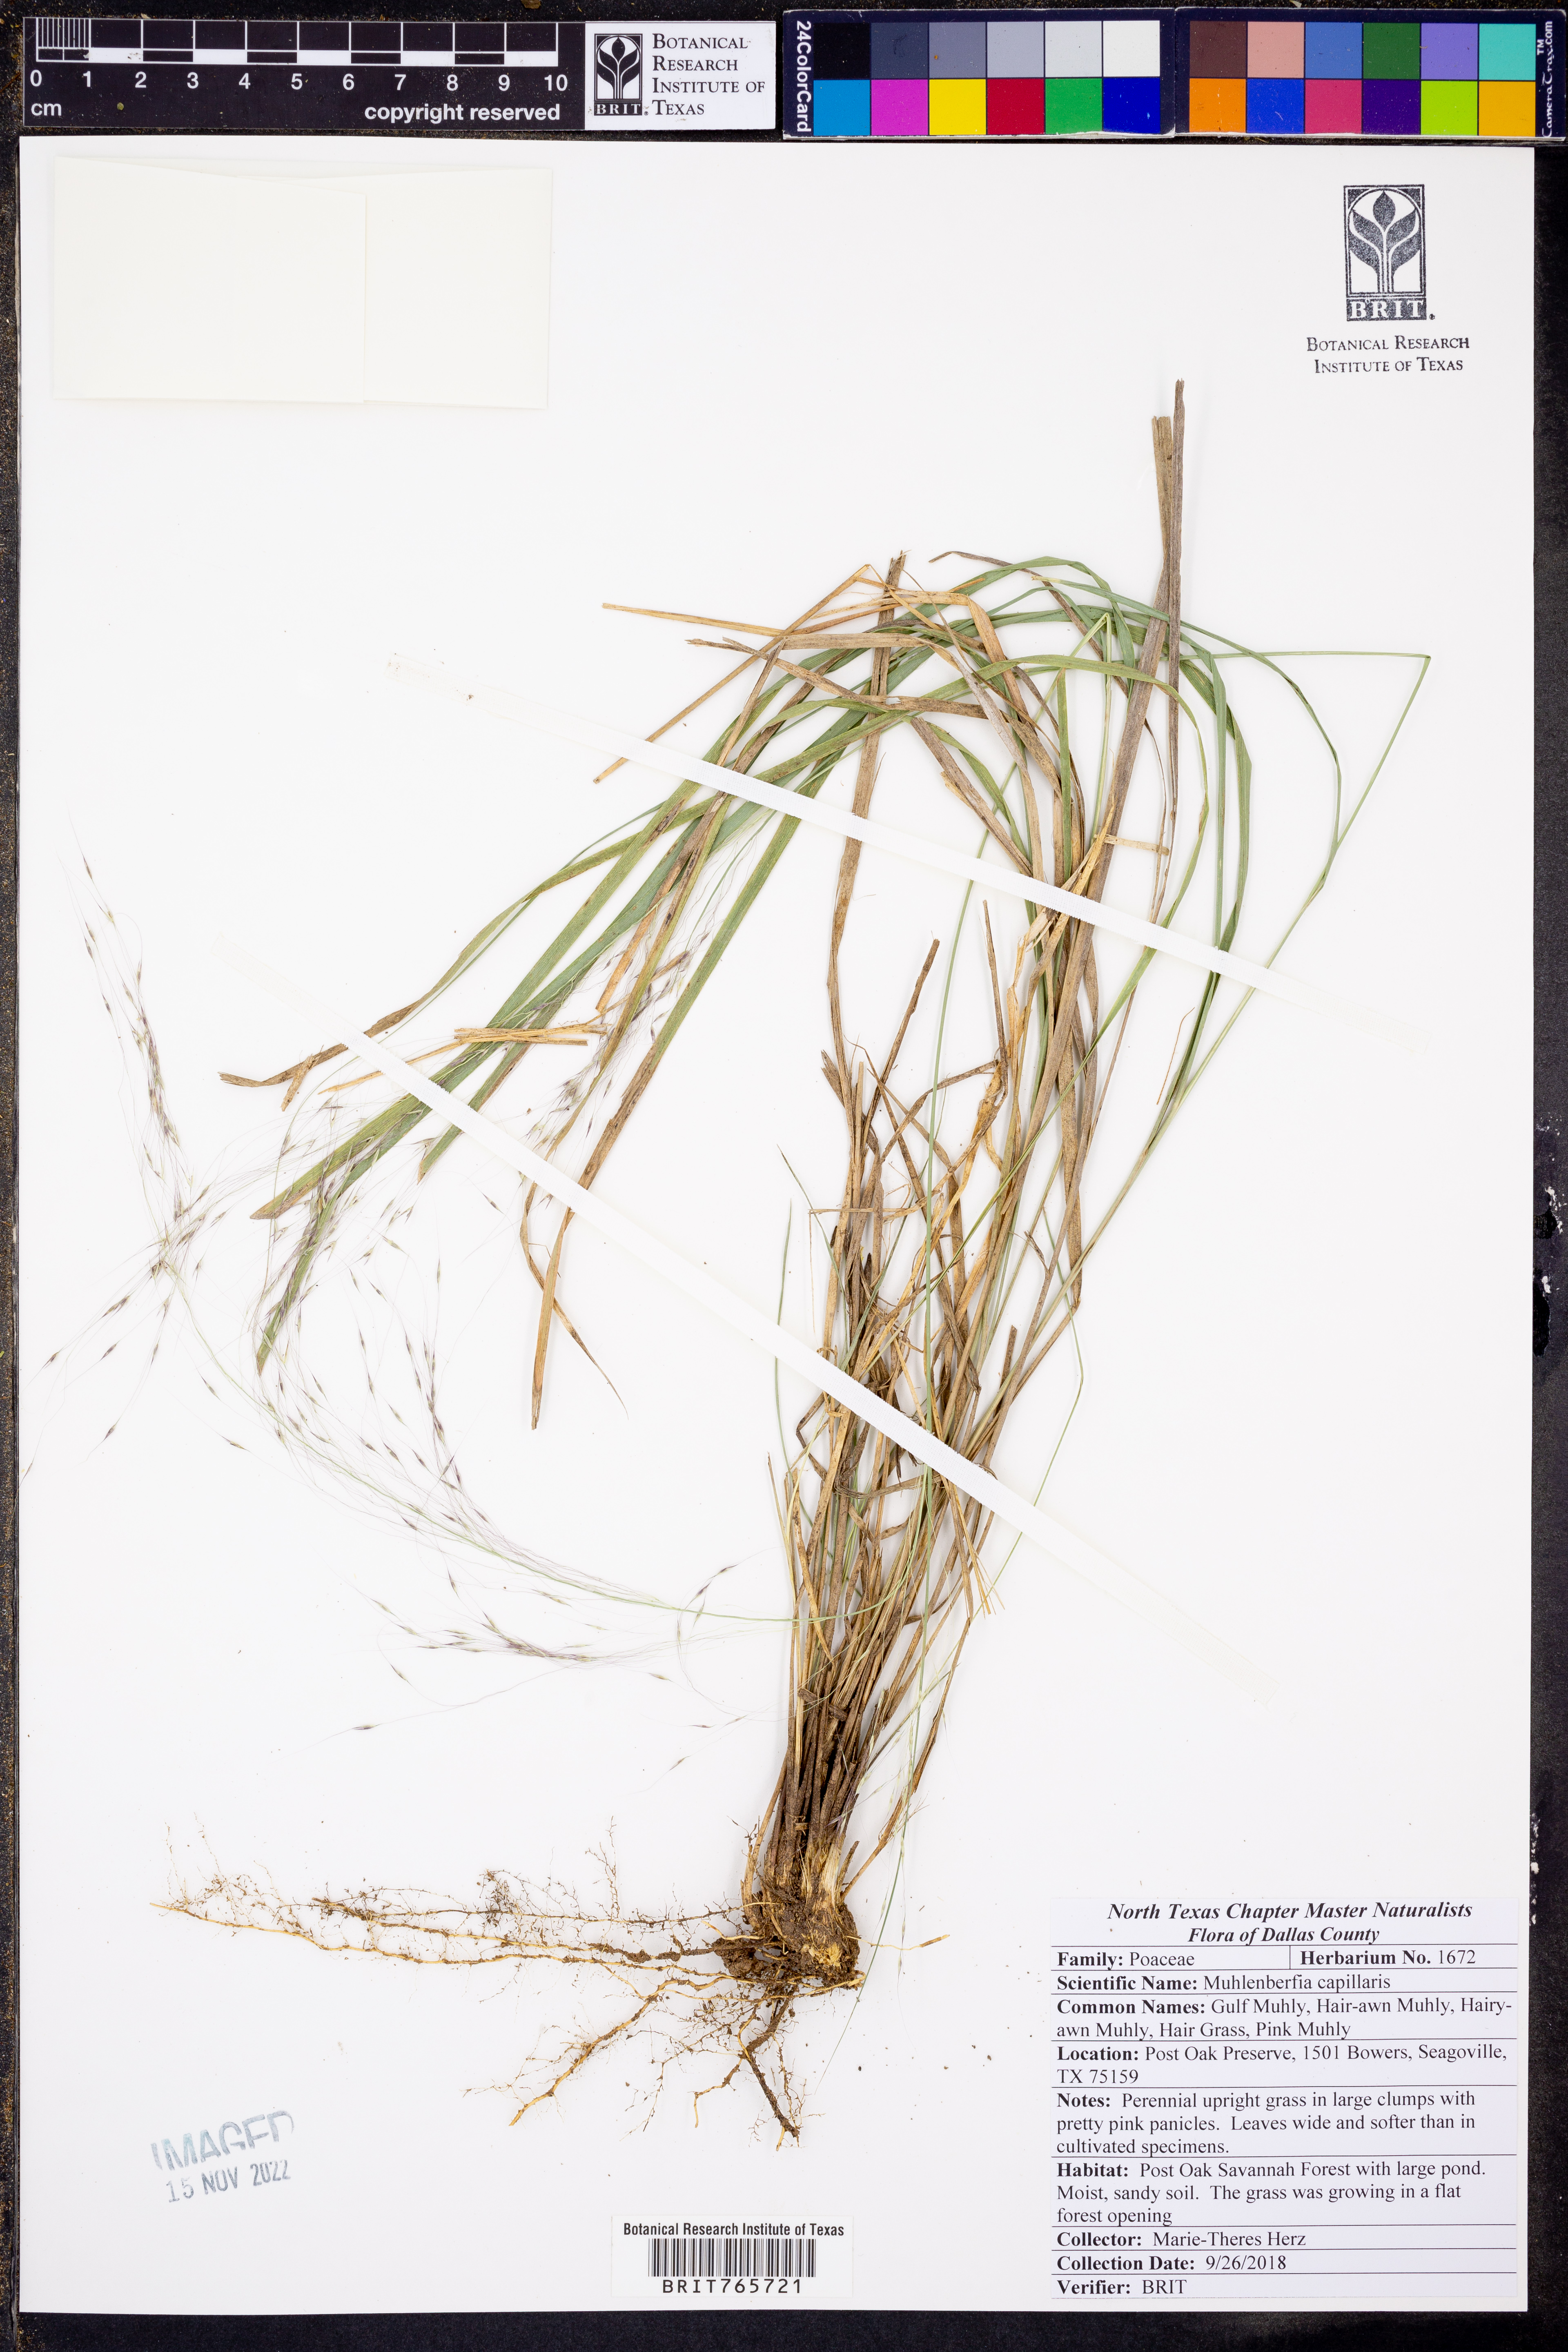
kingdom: Plantae
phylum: Tracheophyta
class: Liliopsida
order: Poales
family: Poaceae
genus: Muhlenbergia
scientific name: Muhlenbergia capillaris
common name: Purple grass
